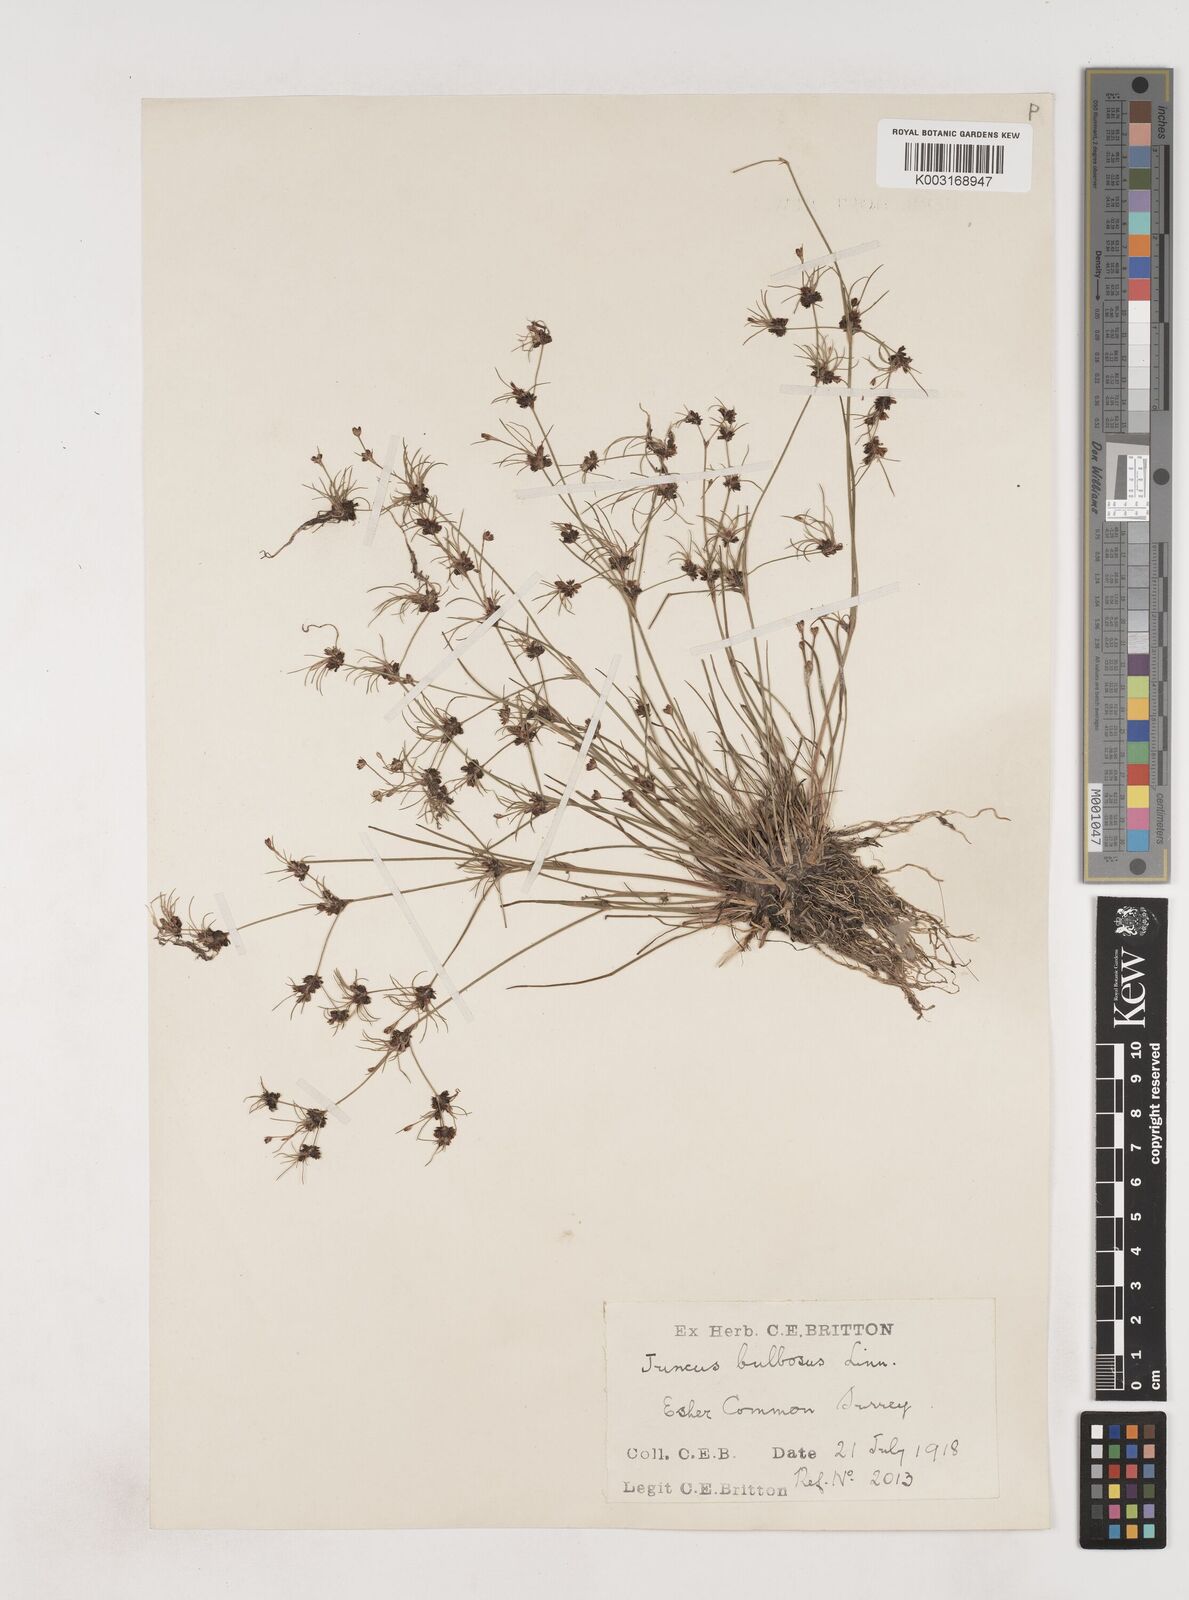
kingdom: Plantae
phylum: Tracheophyta
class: Liliopsida
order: Poales
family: Juncaceae
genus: Juncus
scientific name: Juncus bulbosus
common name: Bulbous rush
